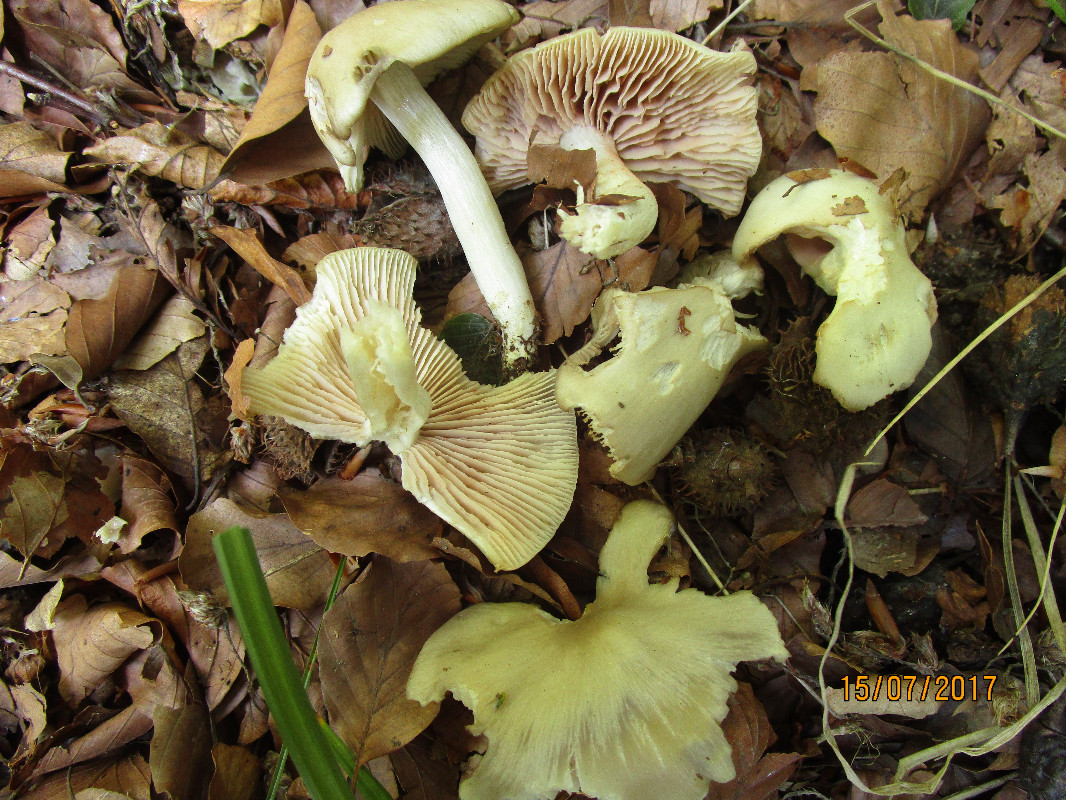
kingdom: Fungi
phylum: Basidiomycota
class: Agaricomycetes
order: Agaricales
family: Entolomataceae
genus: Entoloma
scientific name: Entoloma
